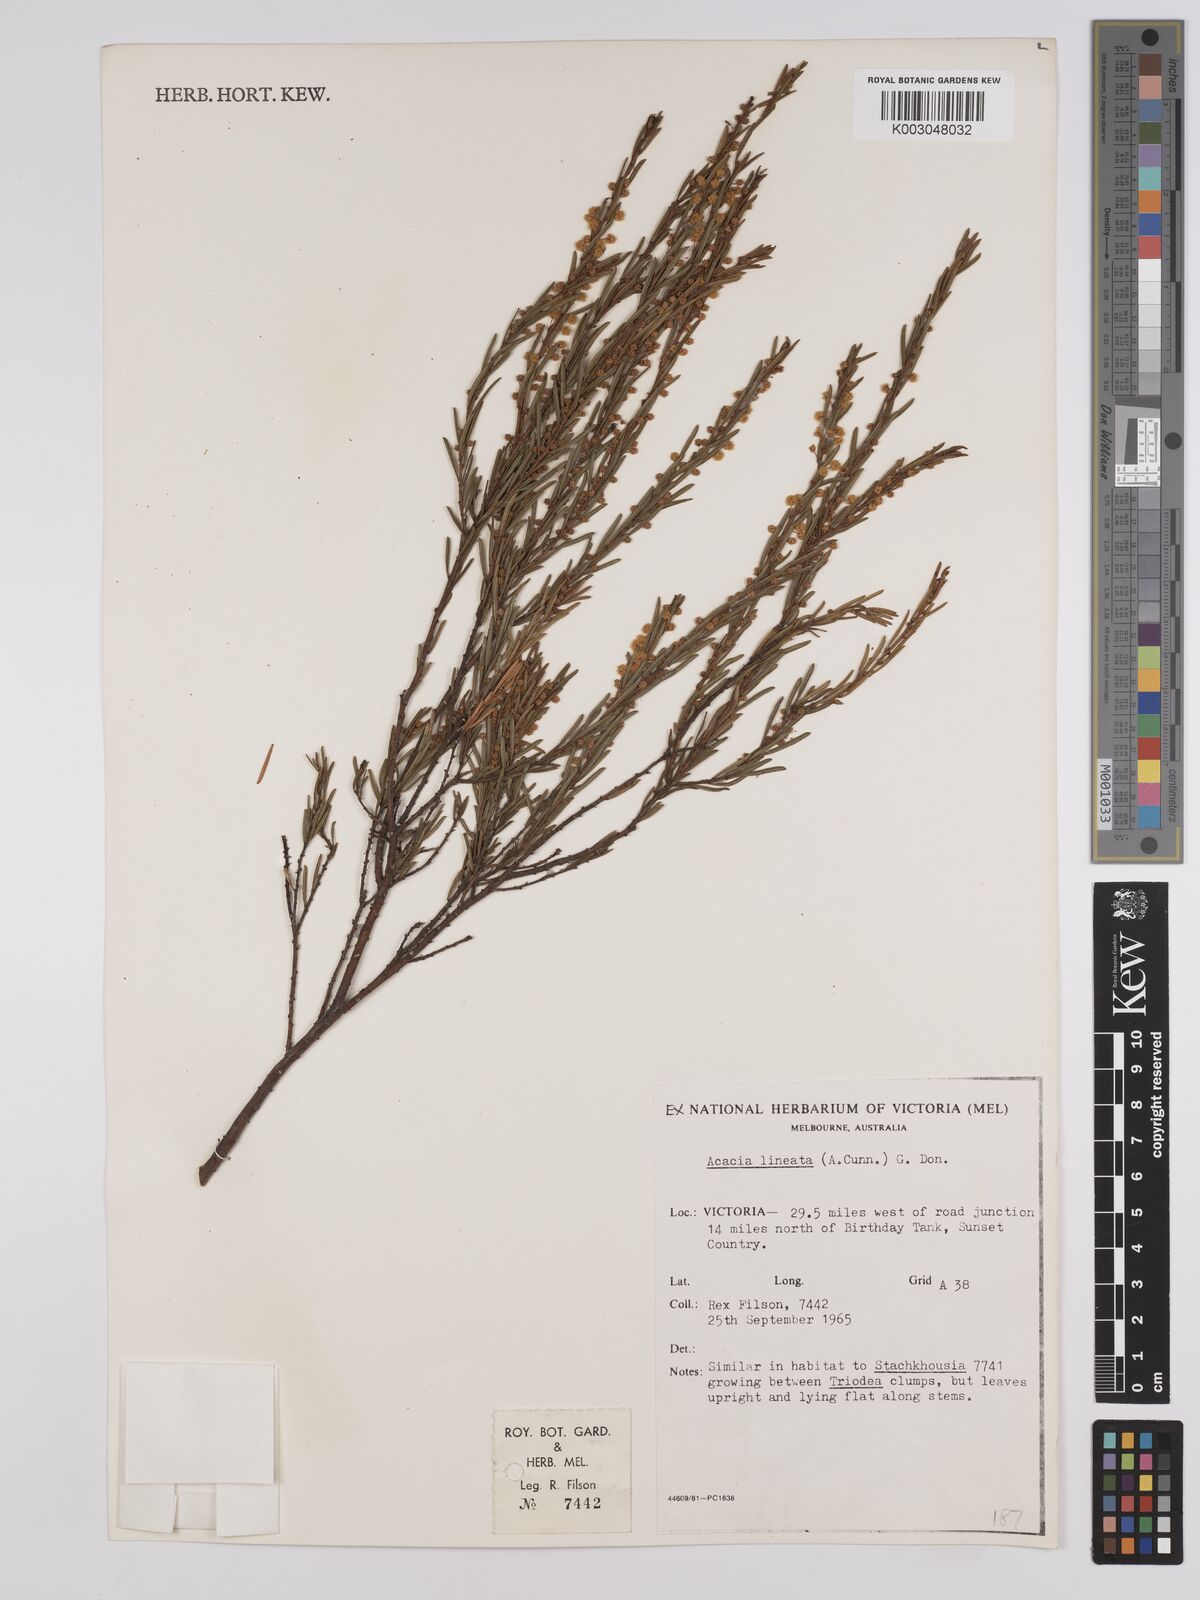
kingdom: Plantae
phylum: Tracheophyta
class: Magnoliopsida
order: Fabales
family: Fabaceae
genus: Acacia
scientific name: Acacia lineata
